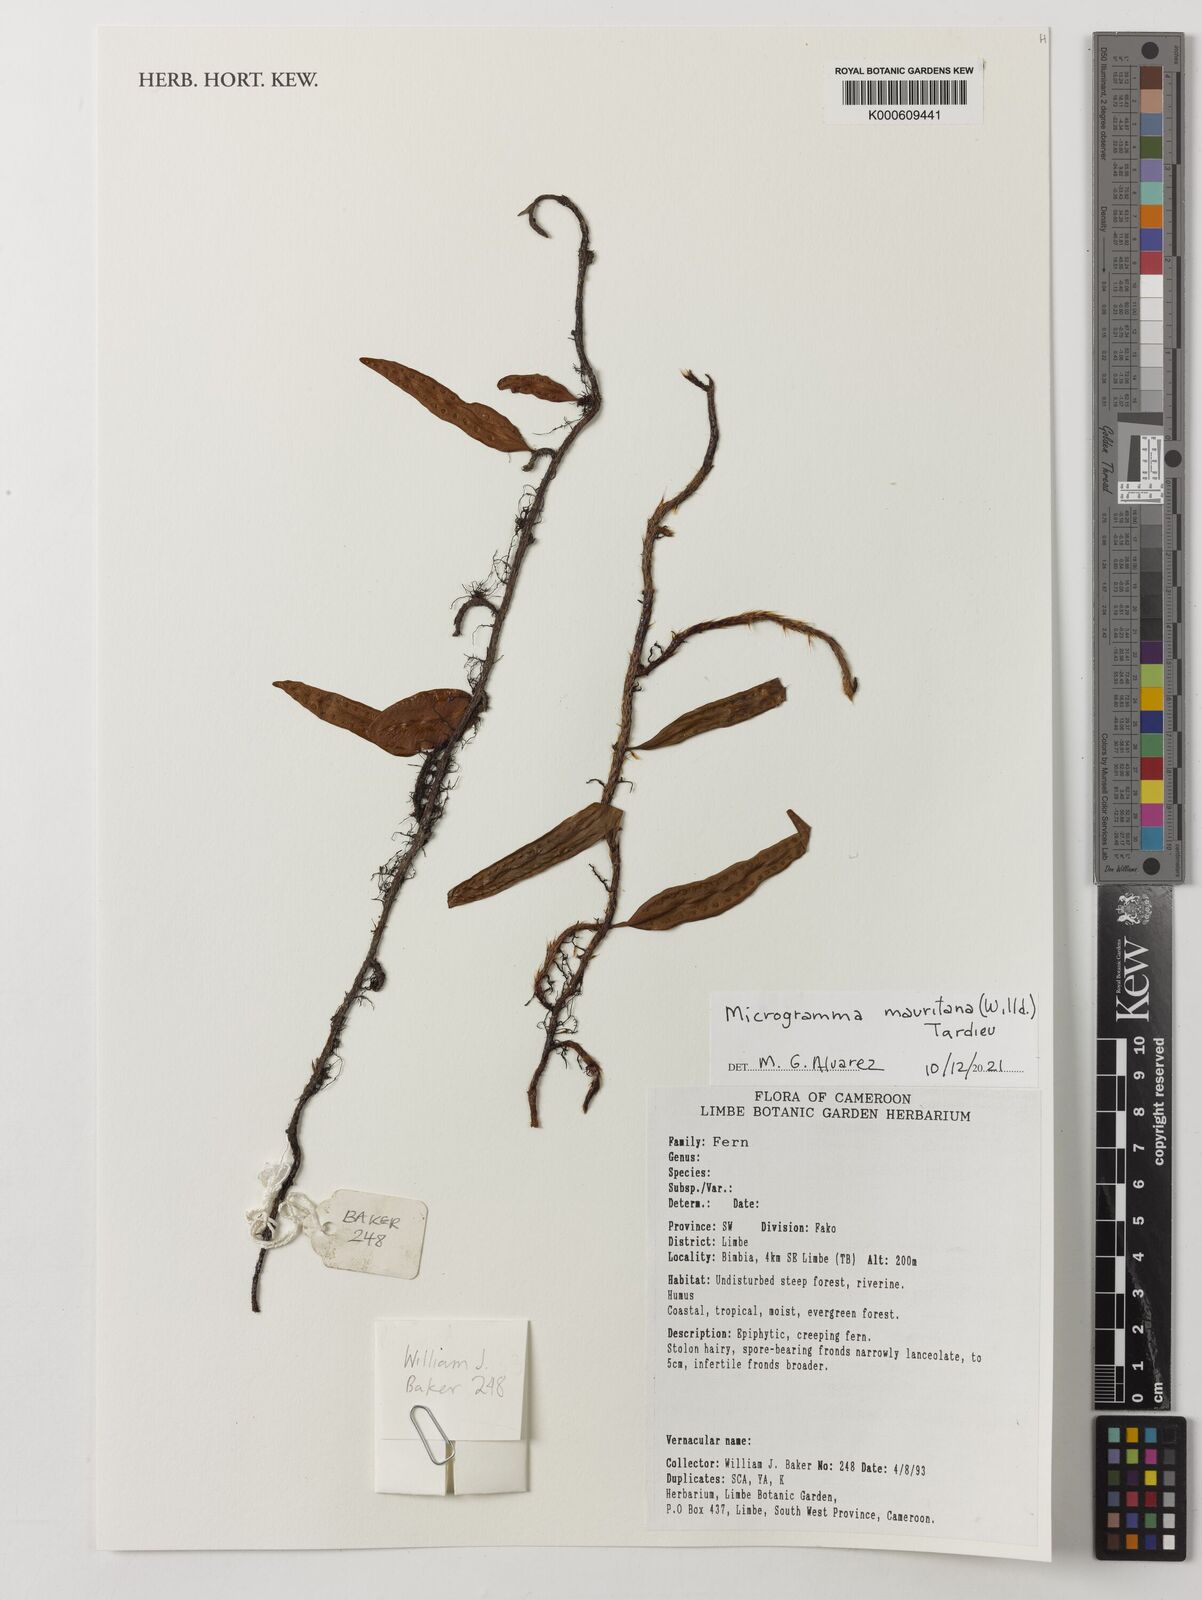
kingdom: Plantae
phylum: Tracheophyta
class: Polypodiopsida
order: Polypodiales
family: Polypodiaceae
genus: Microgramma
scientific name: Microgramma mauritiana
